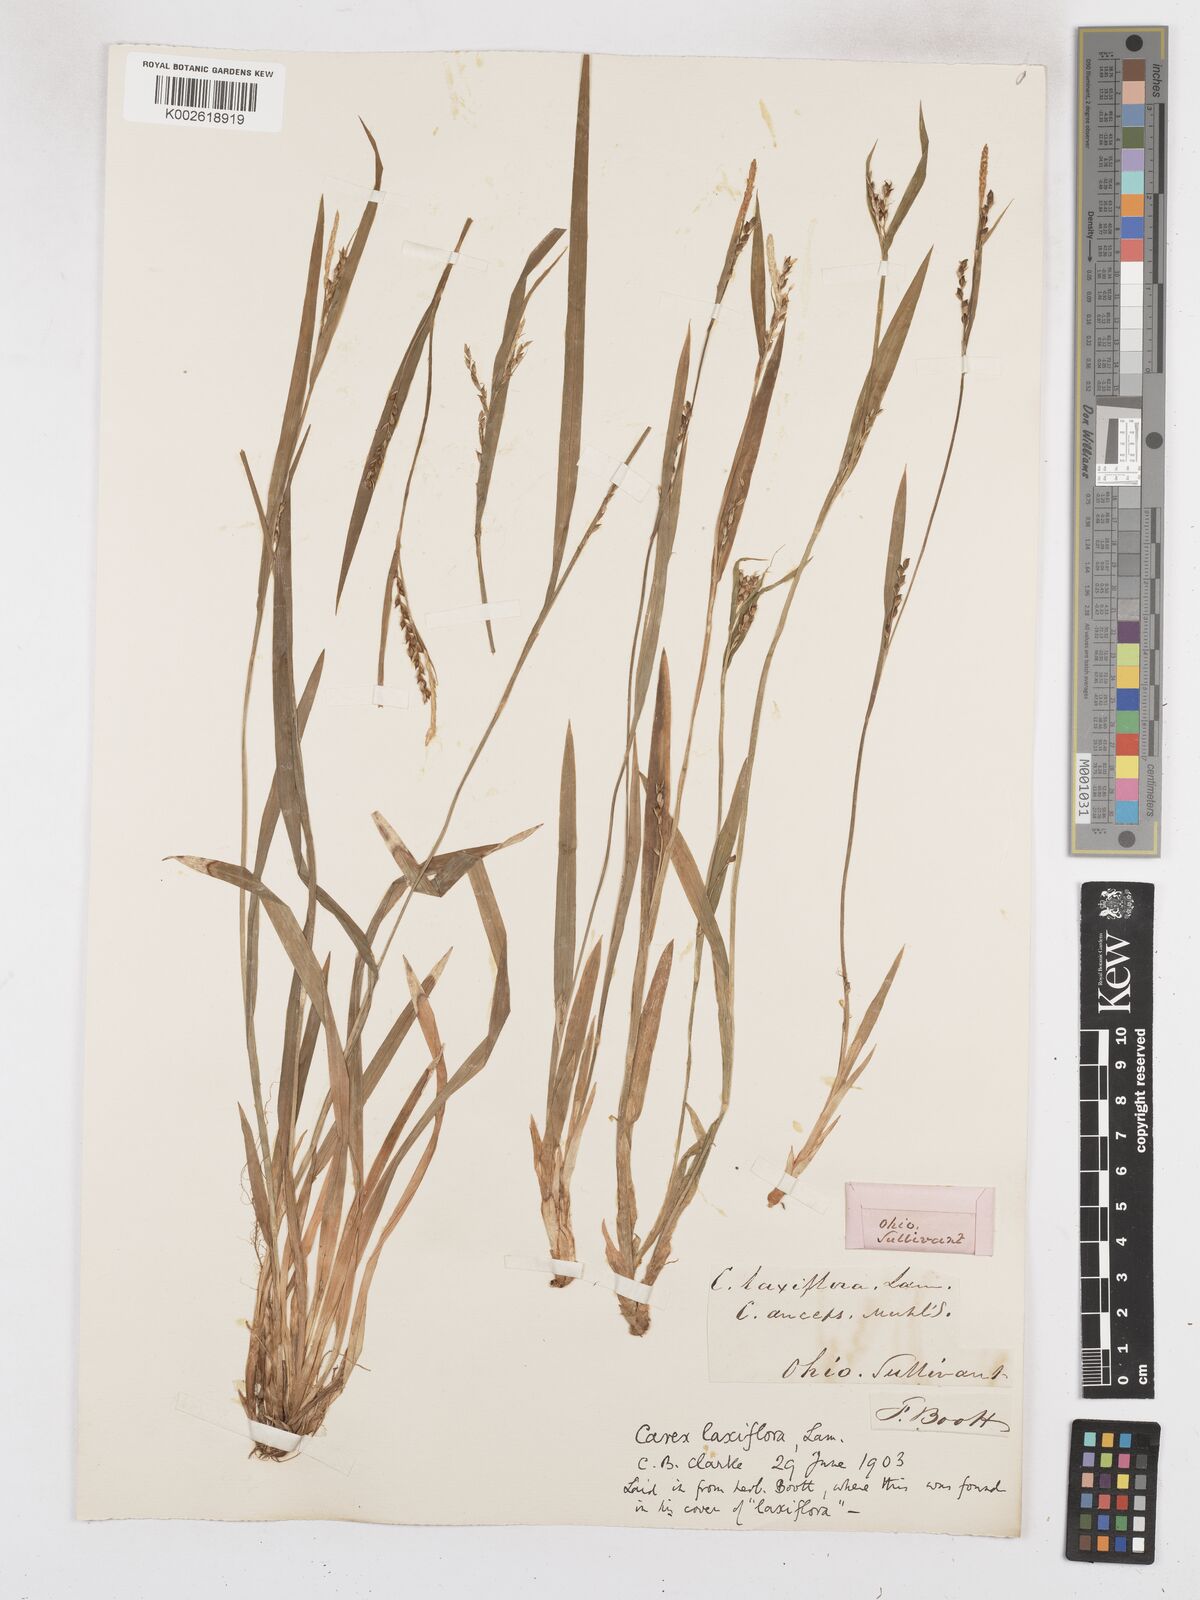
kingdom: Plantae
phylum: Tracheophyta
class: Liliopsida
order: Poales
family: Cyperaceae
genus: Carex
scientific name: Carex laxiflora
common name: Beech wood sedge
